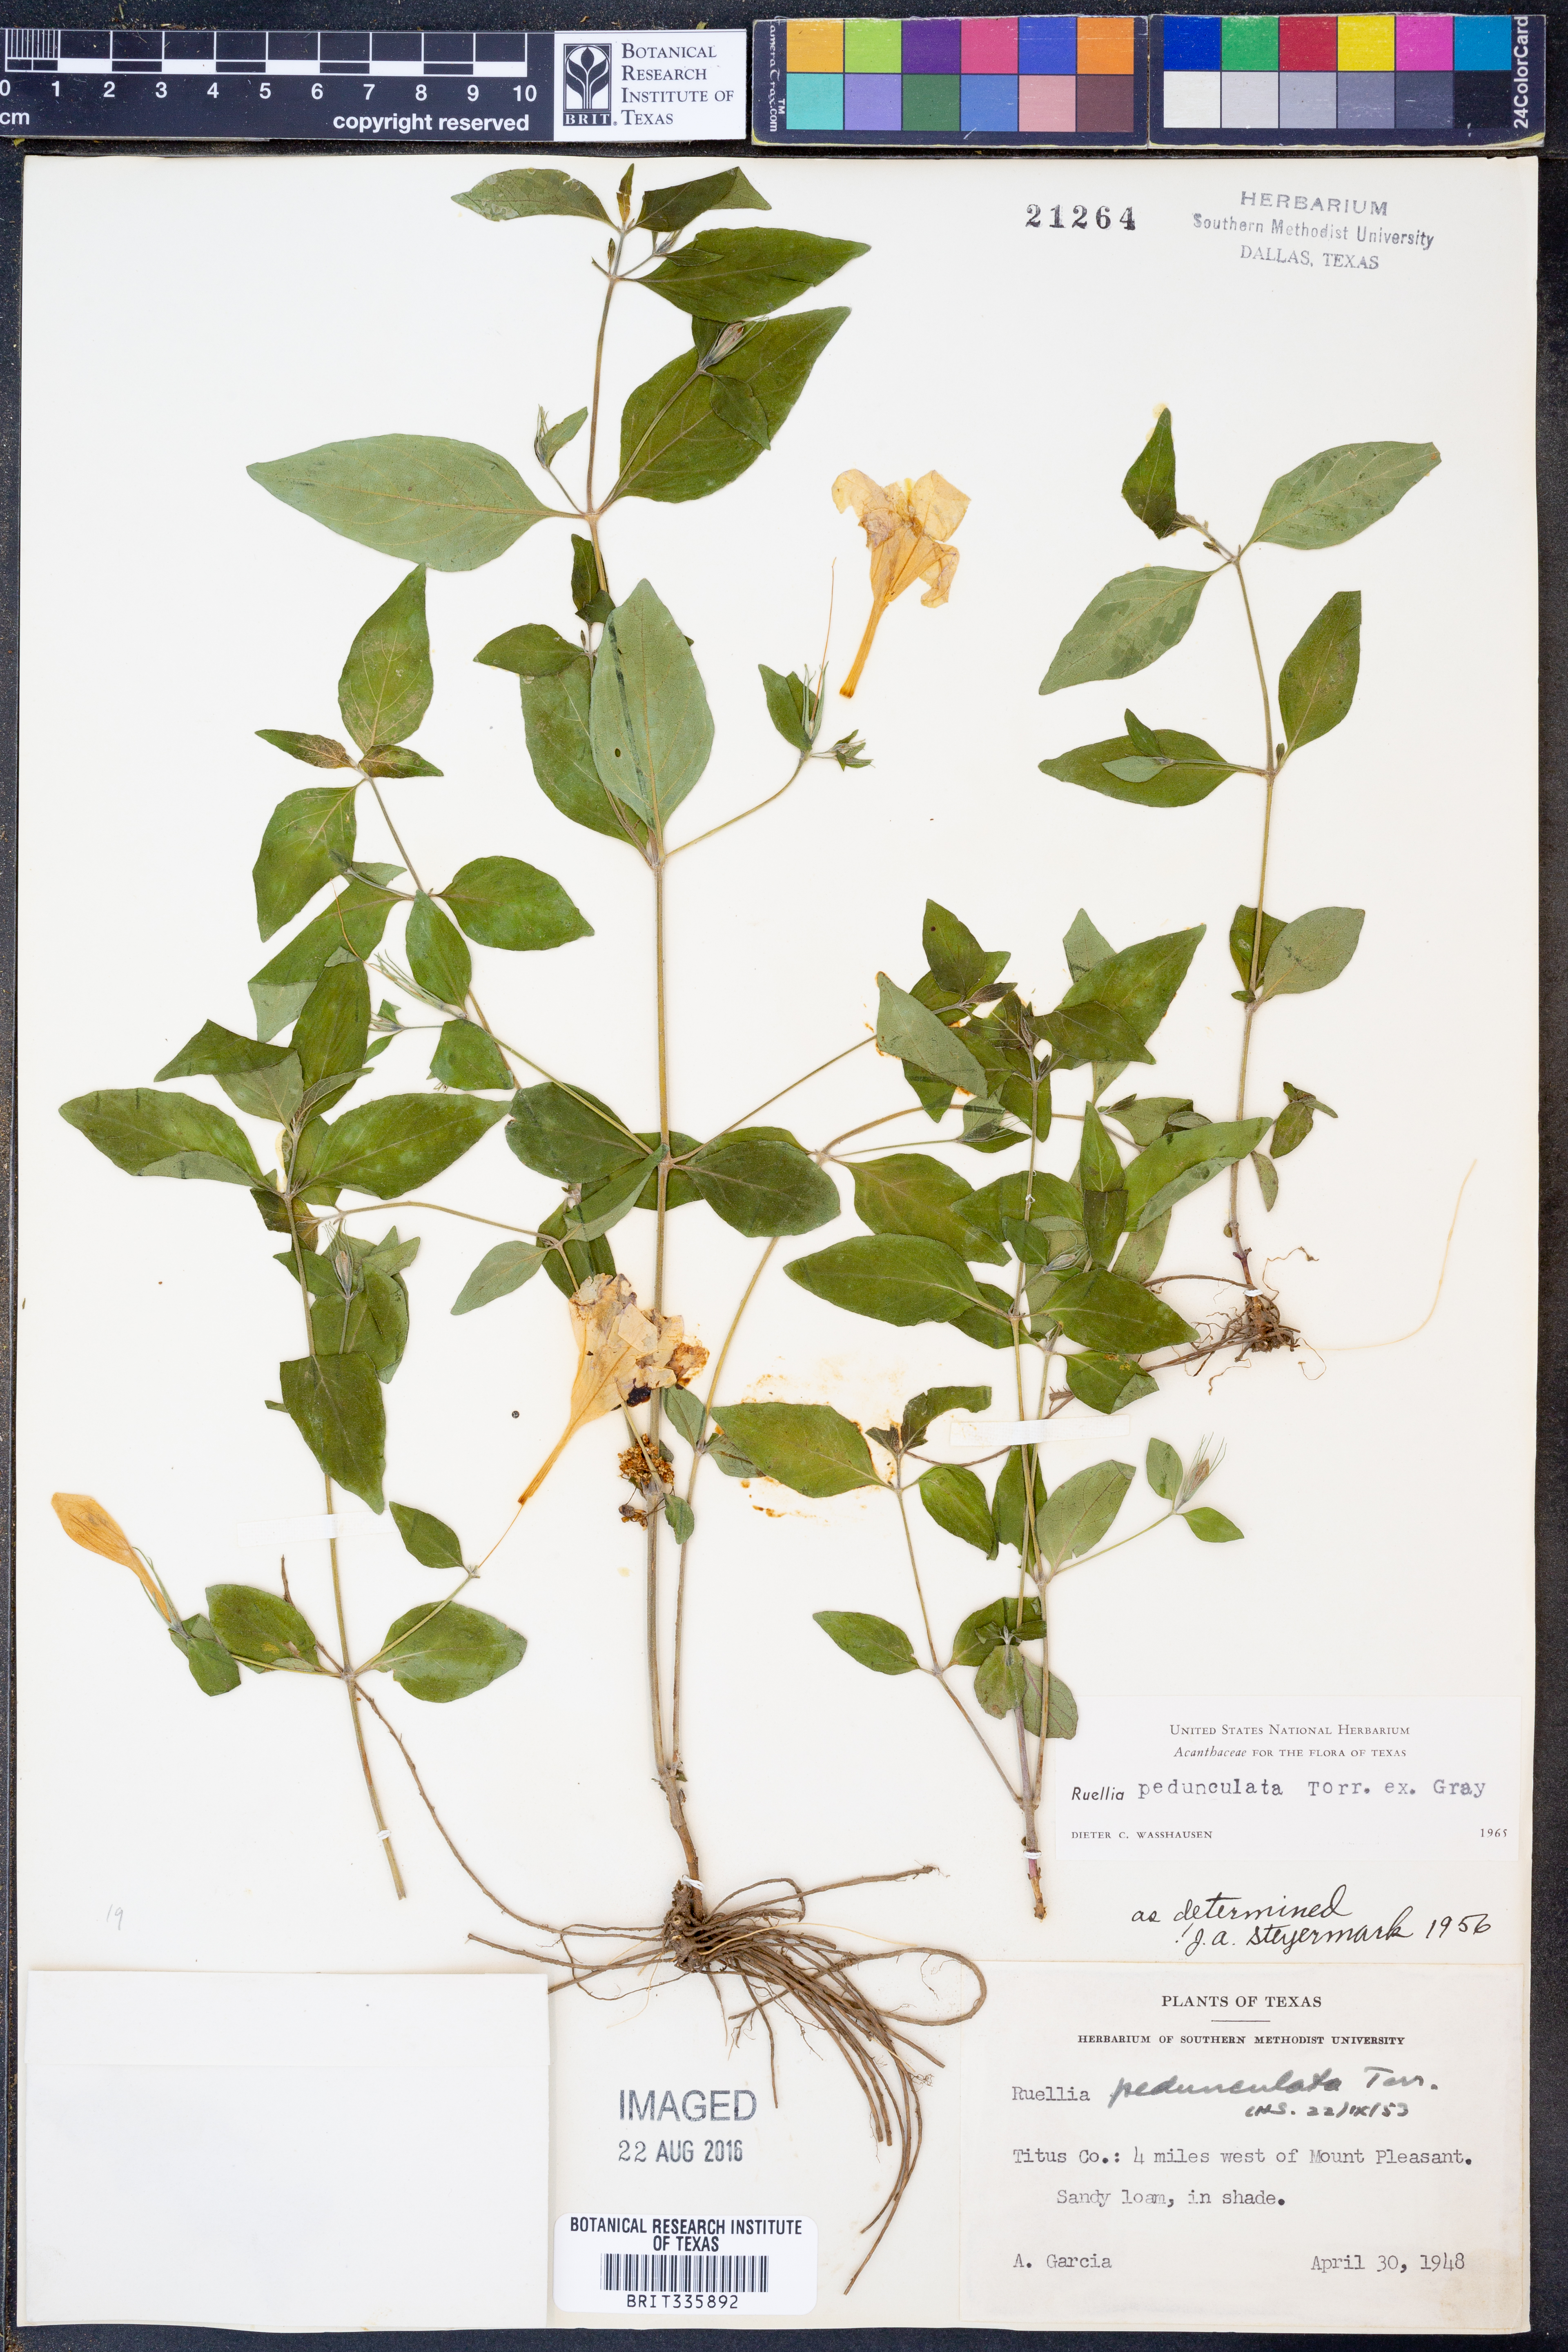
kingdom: Plantae
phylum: Tracheophyta
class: Magnoliopsida
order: Lamiales
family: Acanthaceae
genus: Ruellia
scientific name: Ruellia pedunculata
